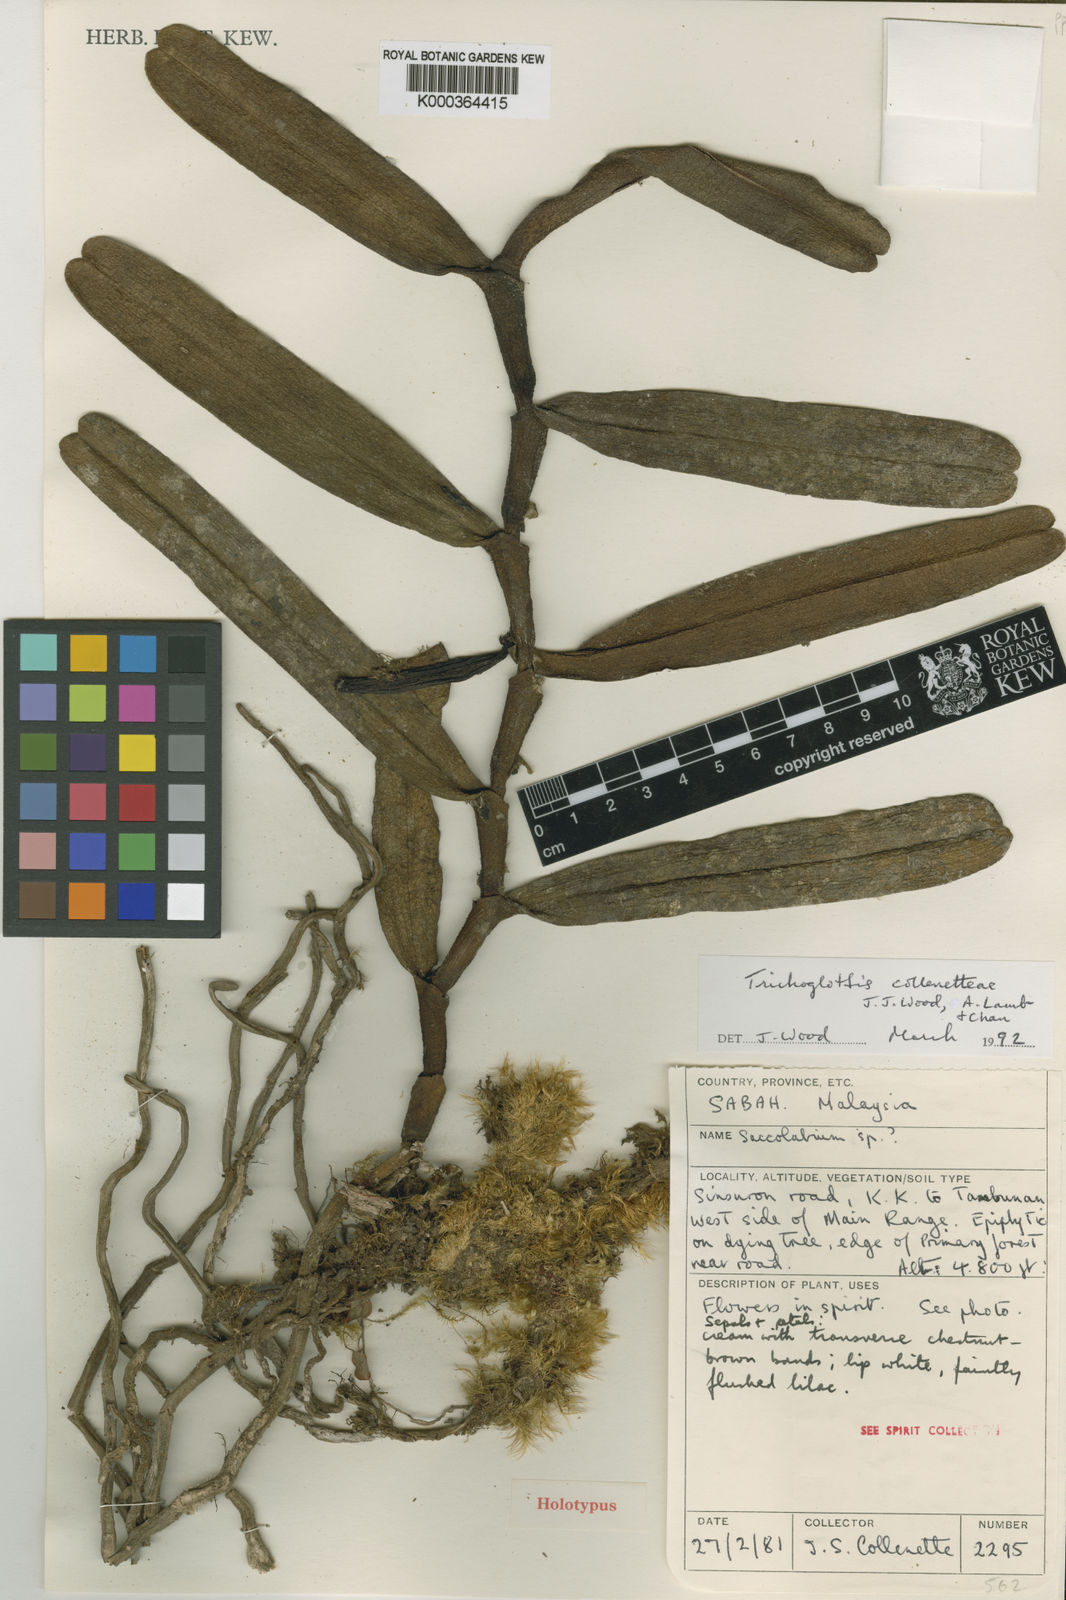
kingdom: Plantae
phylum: Tracheophyta
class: Liliopsida
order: Asparagales
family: Orchidaceae
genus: Trichoglottis
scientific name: Trichoglottis collenetteae
